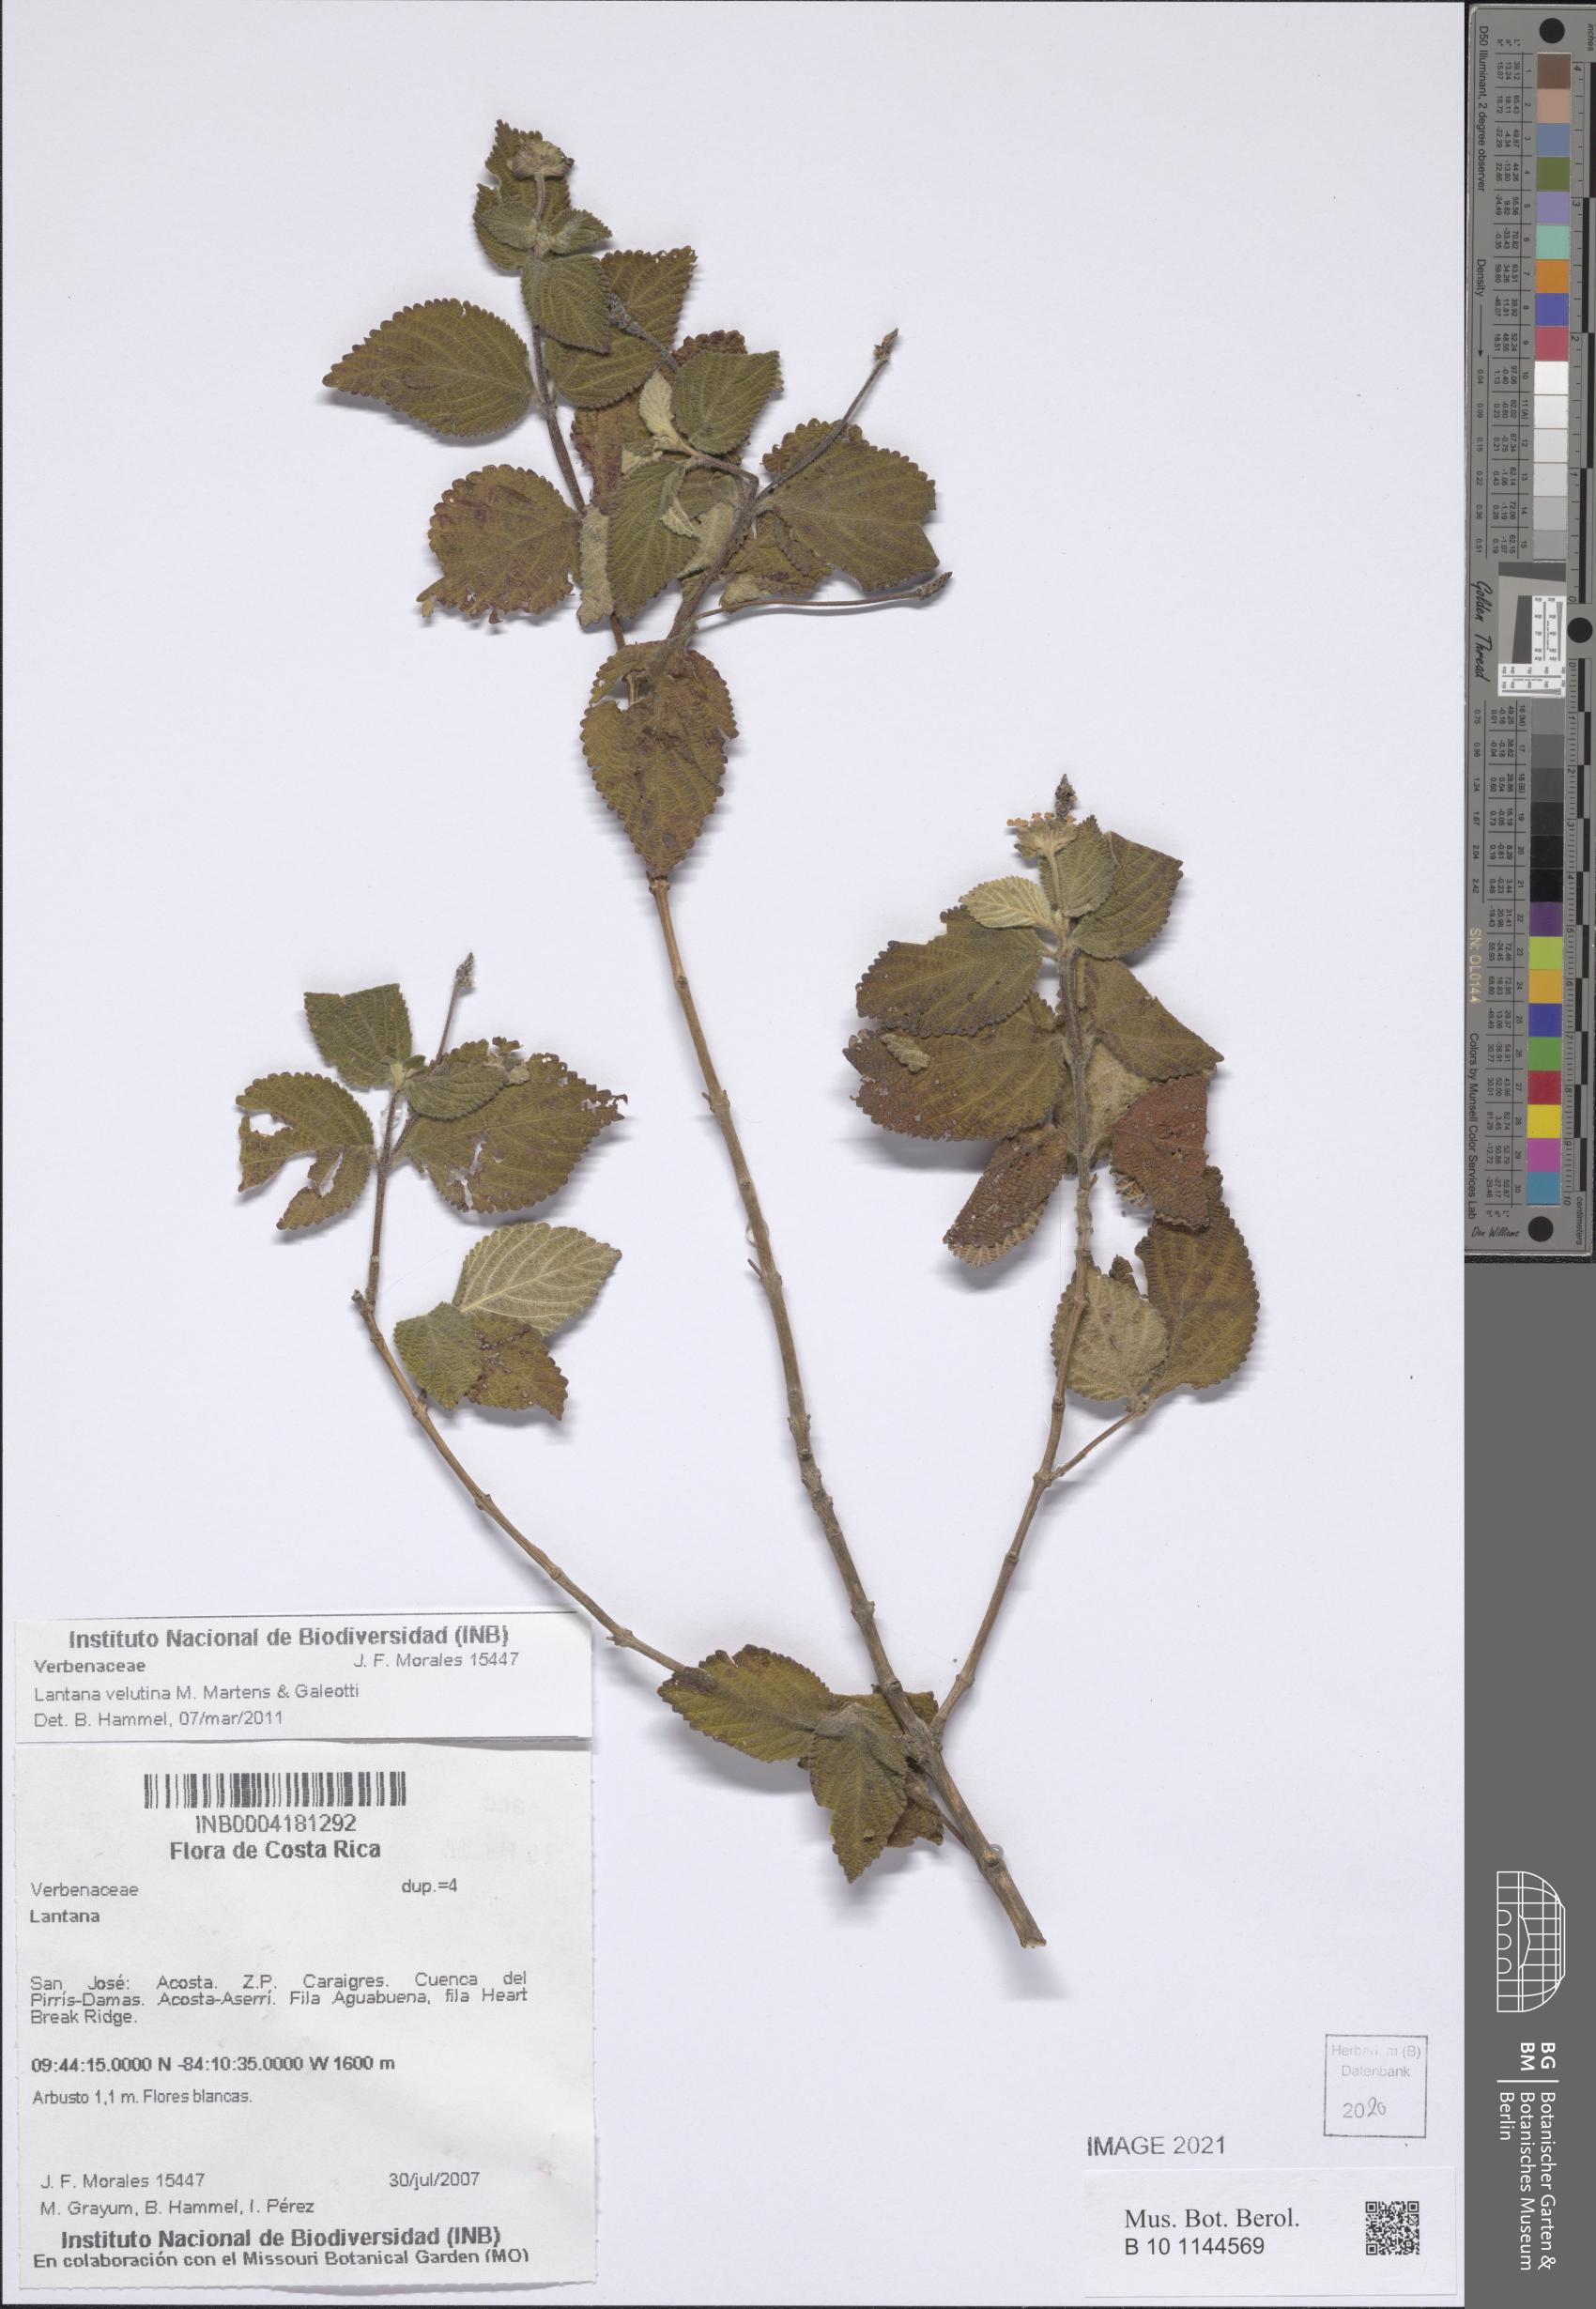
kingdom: Plantae
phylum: Tracheophyta
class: Magnoliopsida
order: Lamiales
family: Verbenaceae
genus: Lantana
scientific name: Lantana velutina
